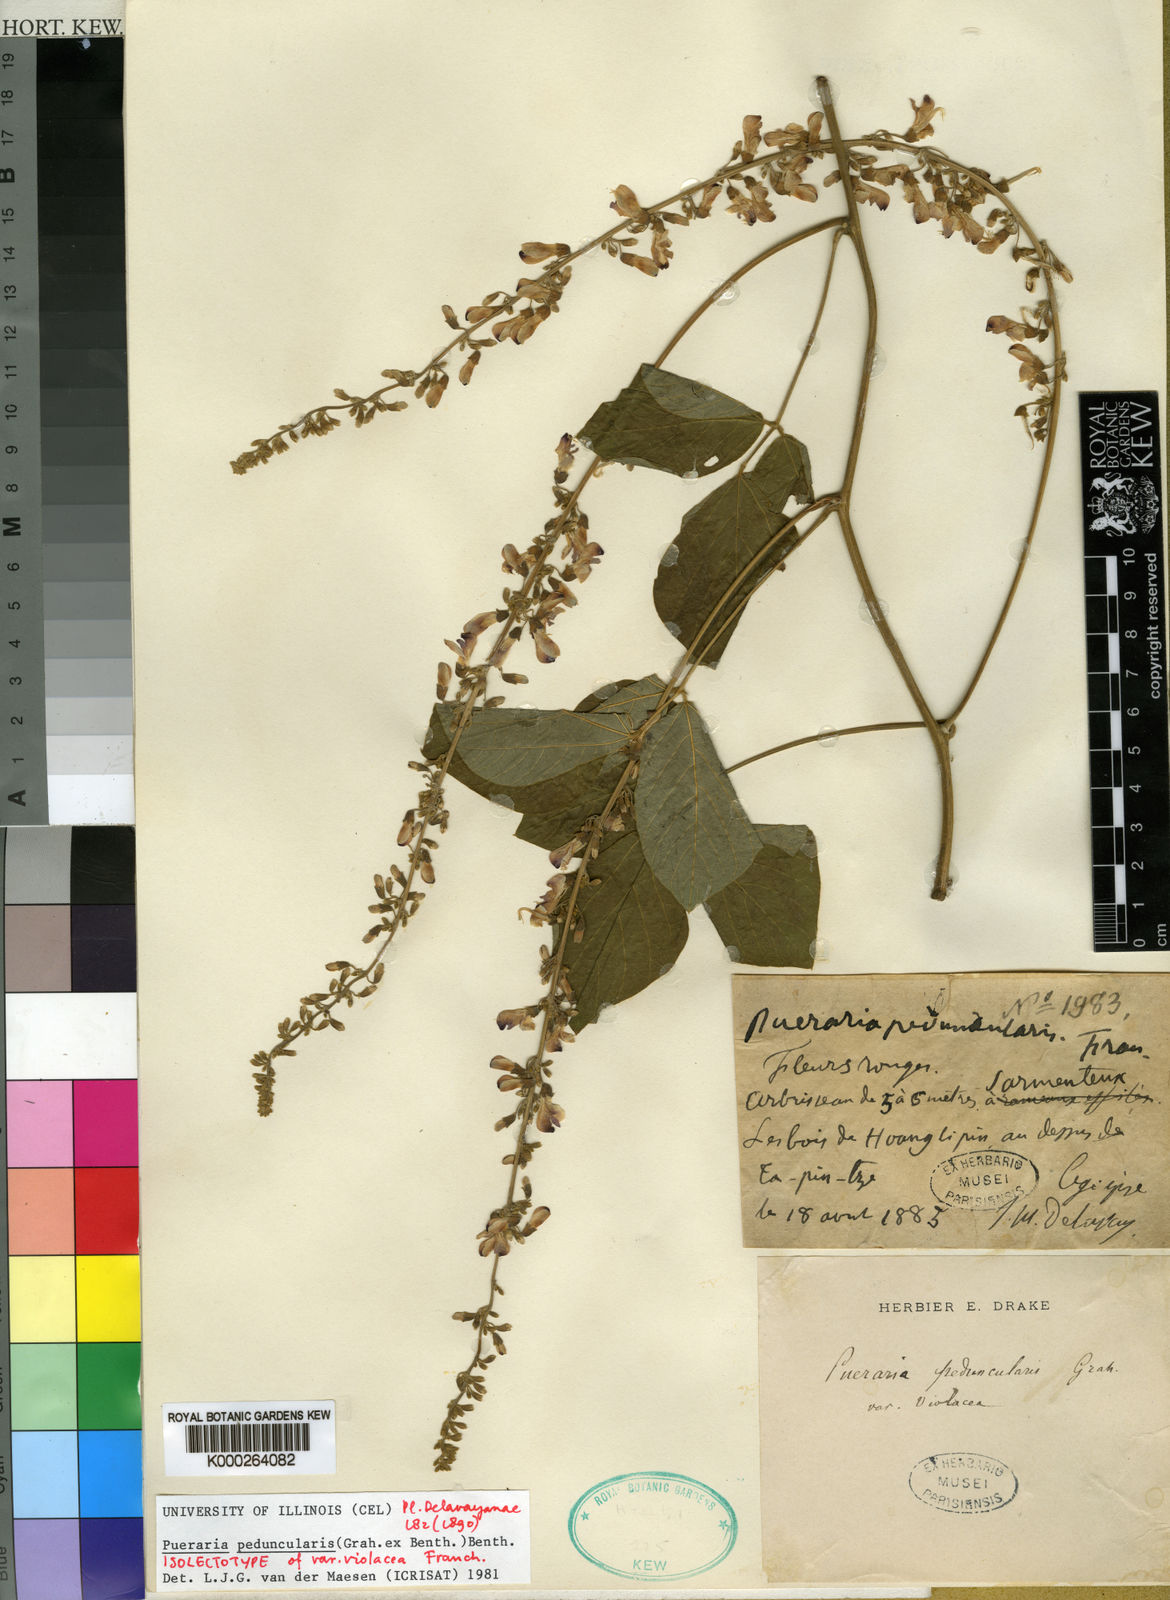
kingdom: Plantae
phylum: Tracheophyta
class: Magnoliopsida
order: Fabales
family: Fabaceae
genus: Toxicopueraria
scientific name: Toxicopueraria peduncularis
